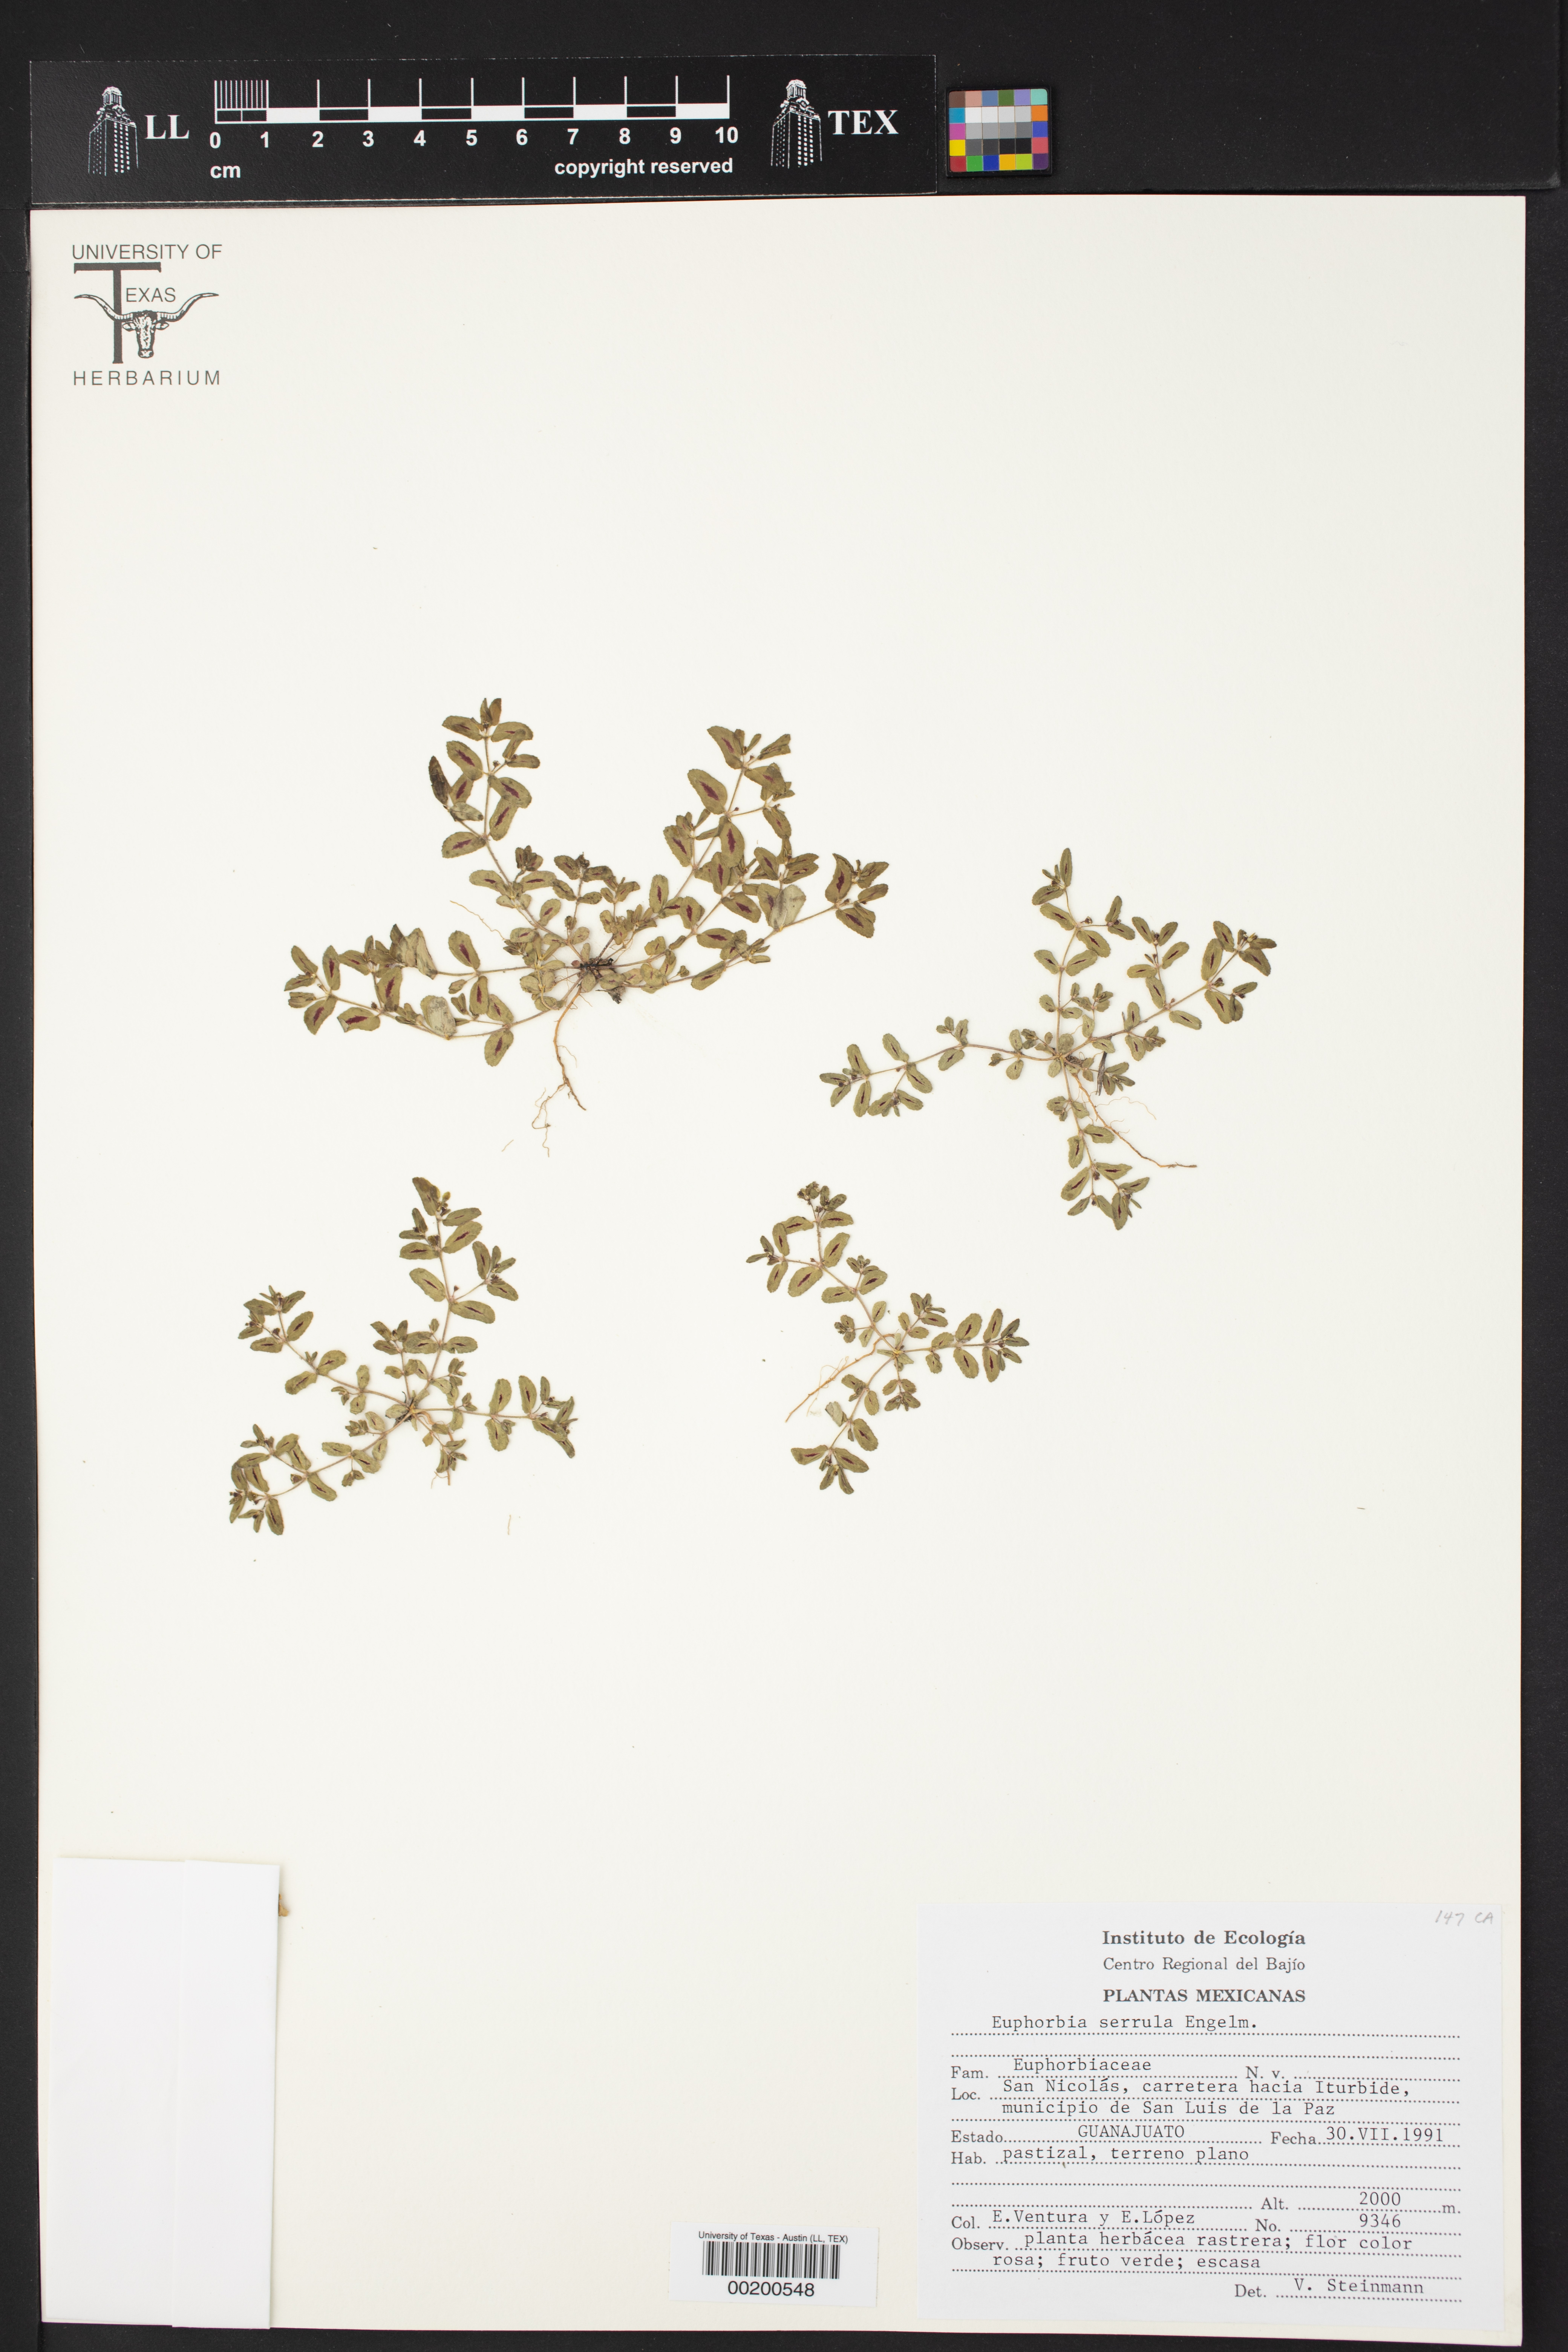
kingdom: Plantae
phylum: Tracheophyta
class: Magnoliopsida
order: Malpighiales
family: Euphorbiaceae
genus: Euphorbia
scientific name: Euphorbia serrula
